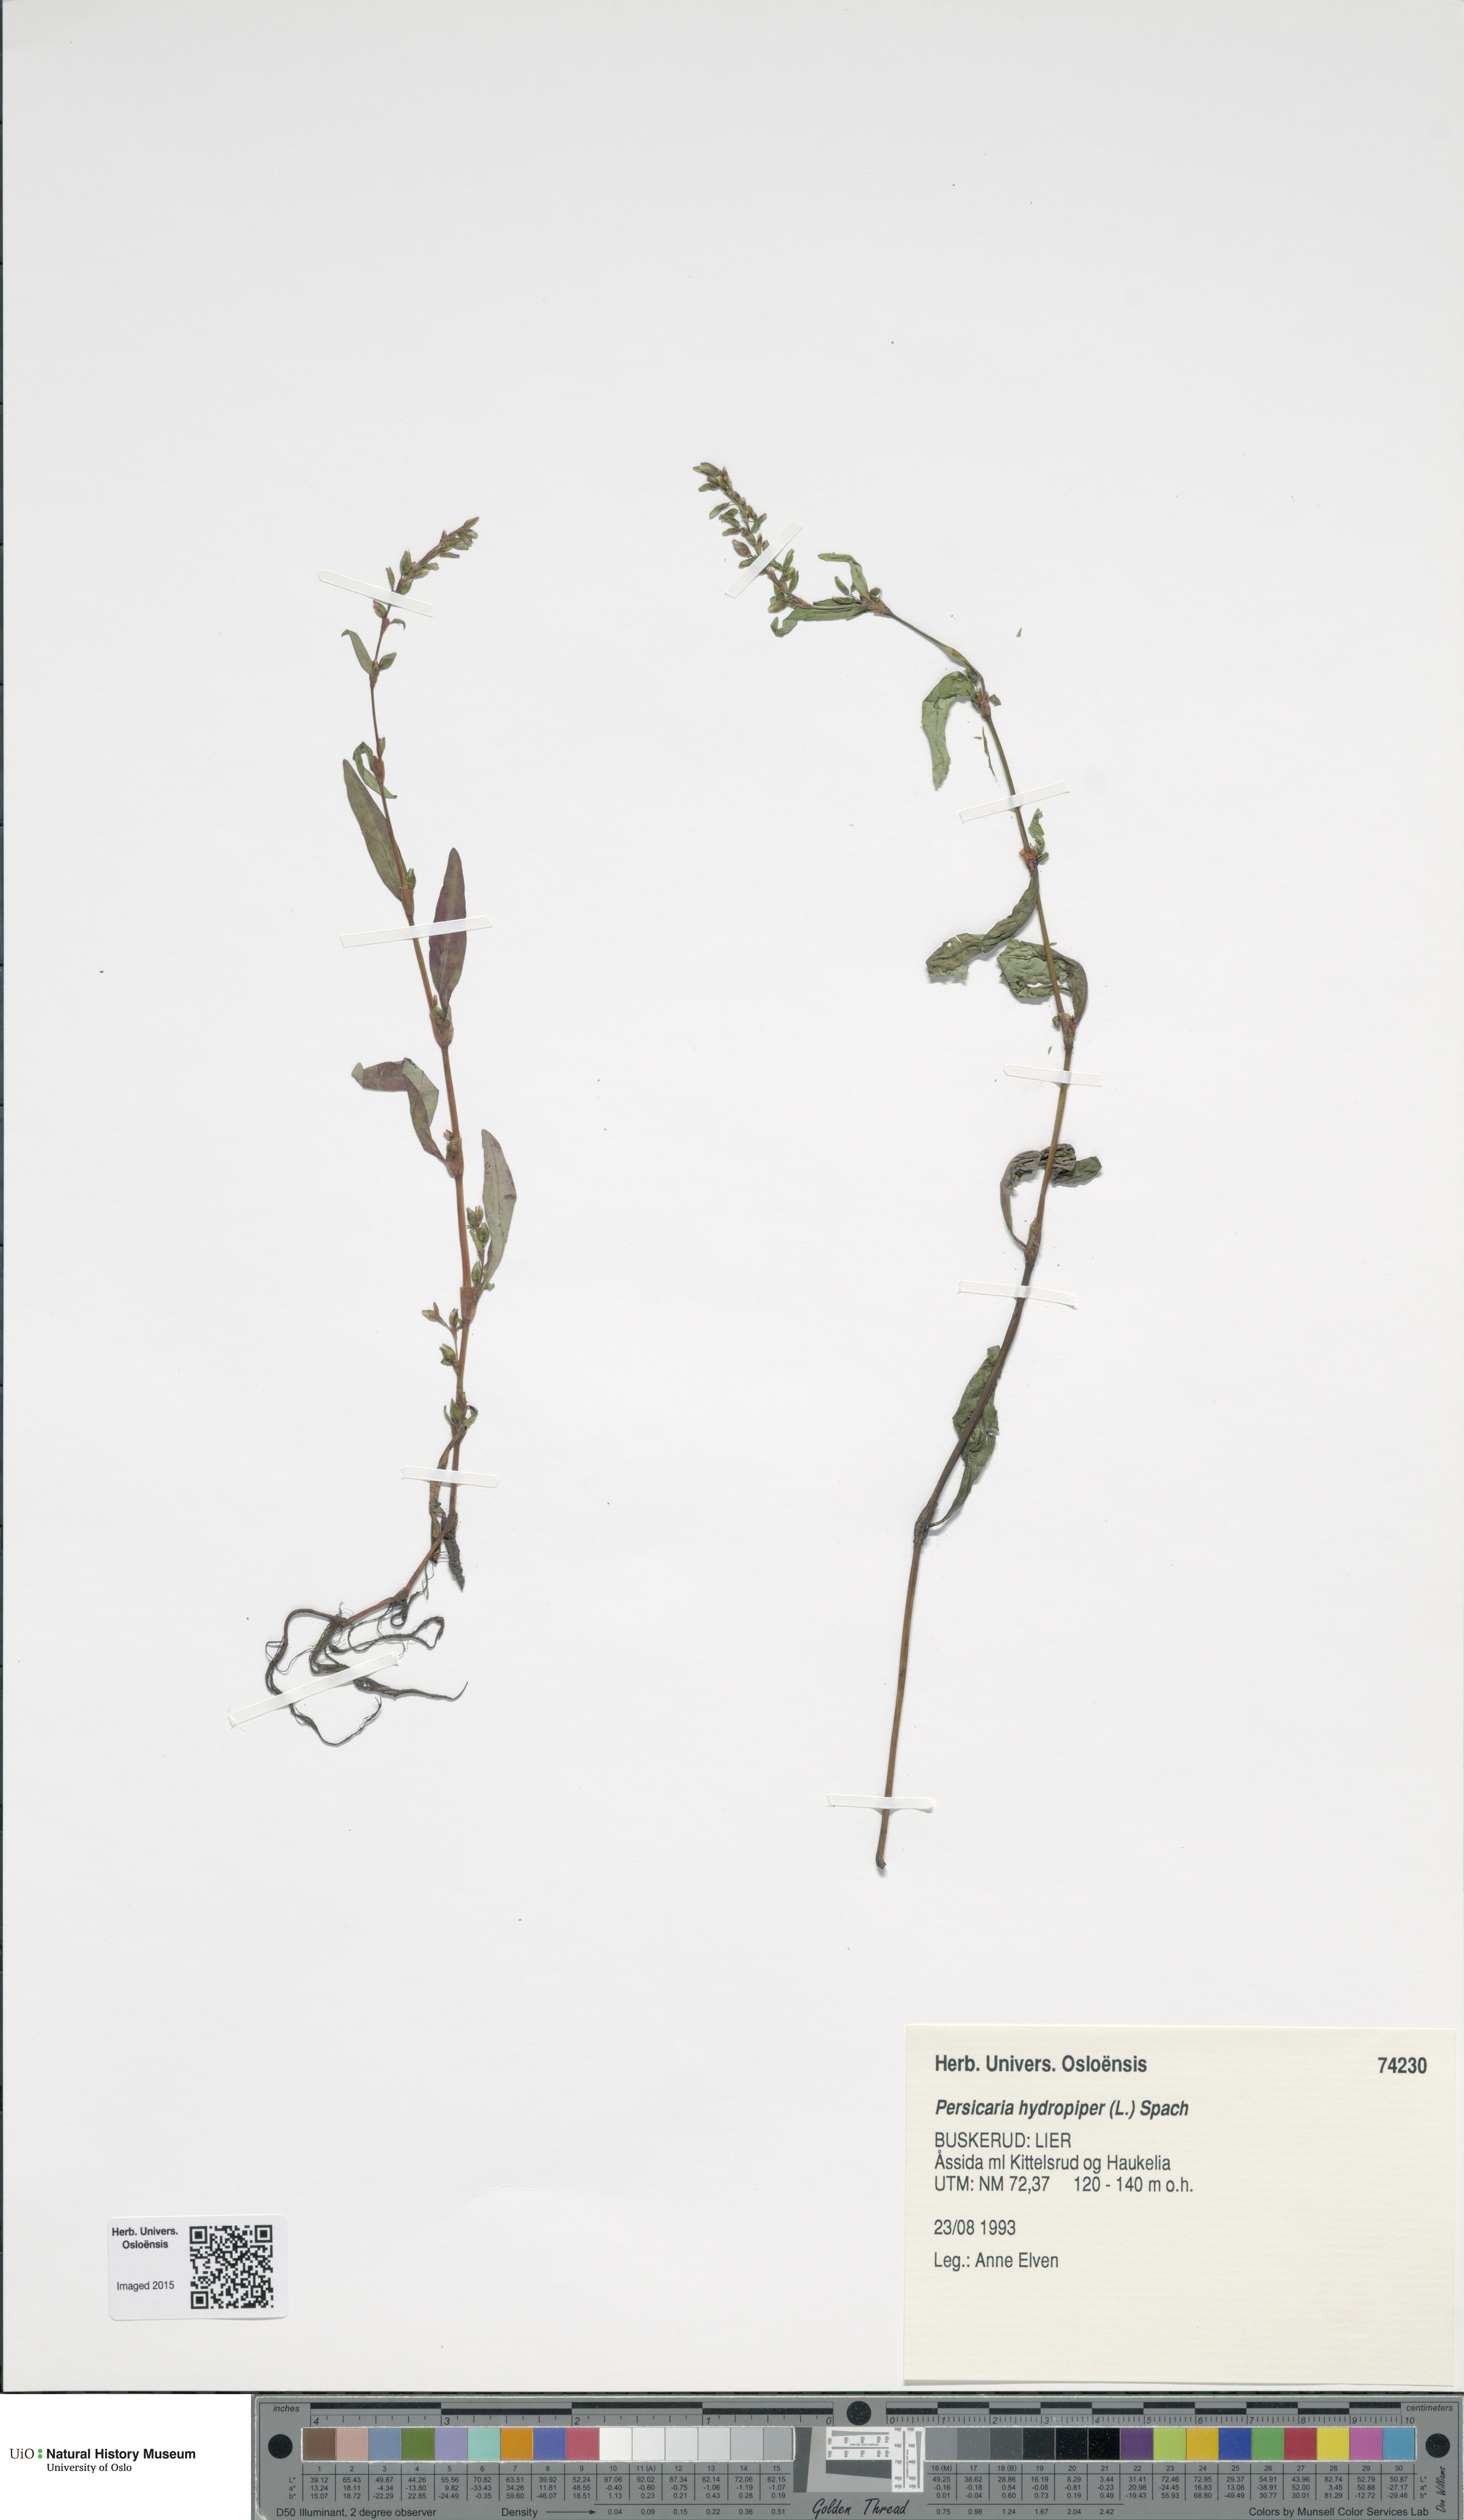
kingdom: Plantae
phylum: Tracheophyta
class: Magnoliopsida
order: Caryophyllales
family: Polygonaceae
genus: Persicaria
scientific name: Persicaria hydropiper
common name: Water-pepper
